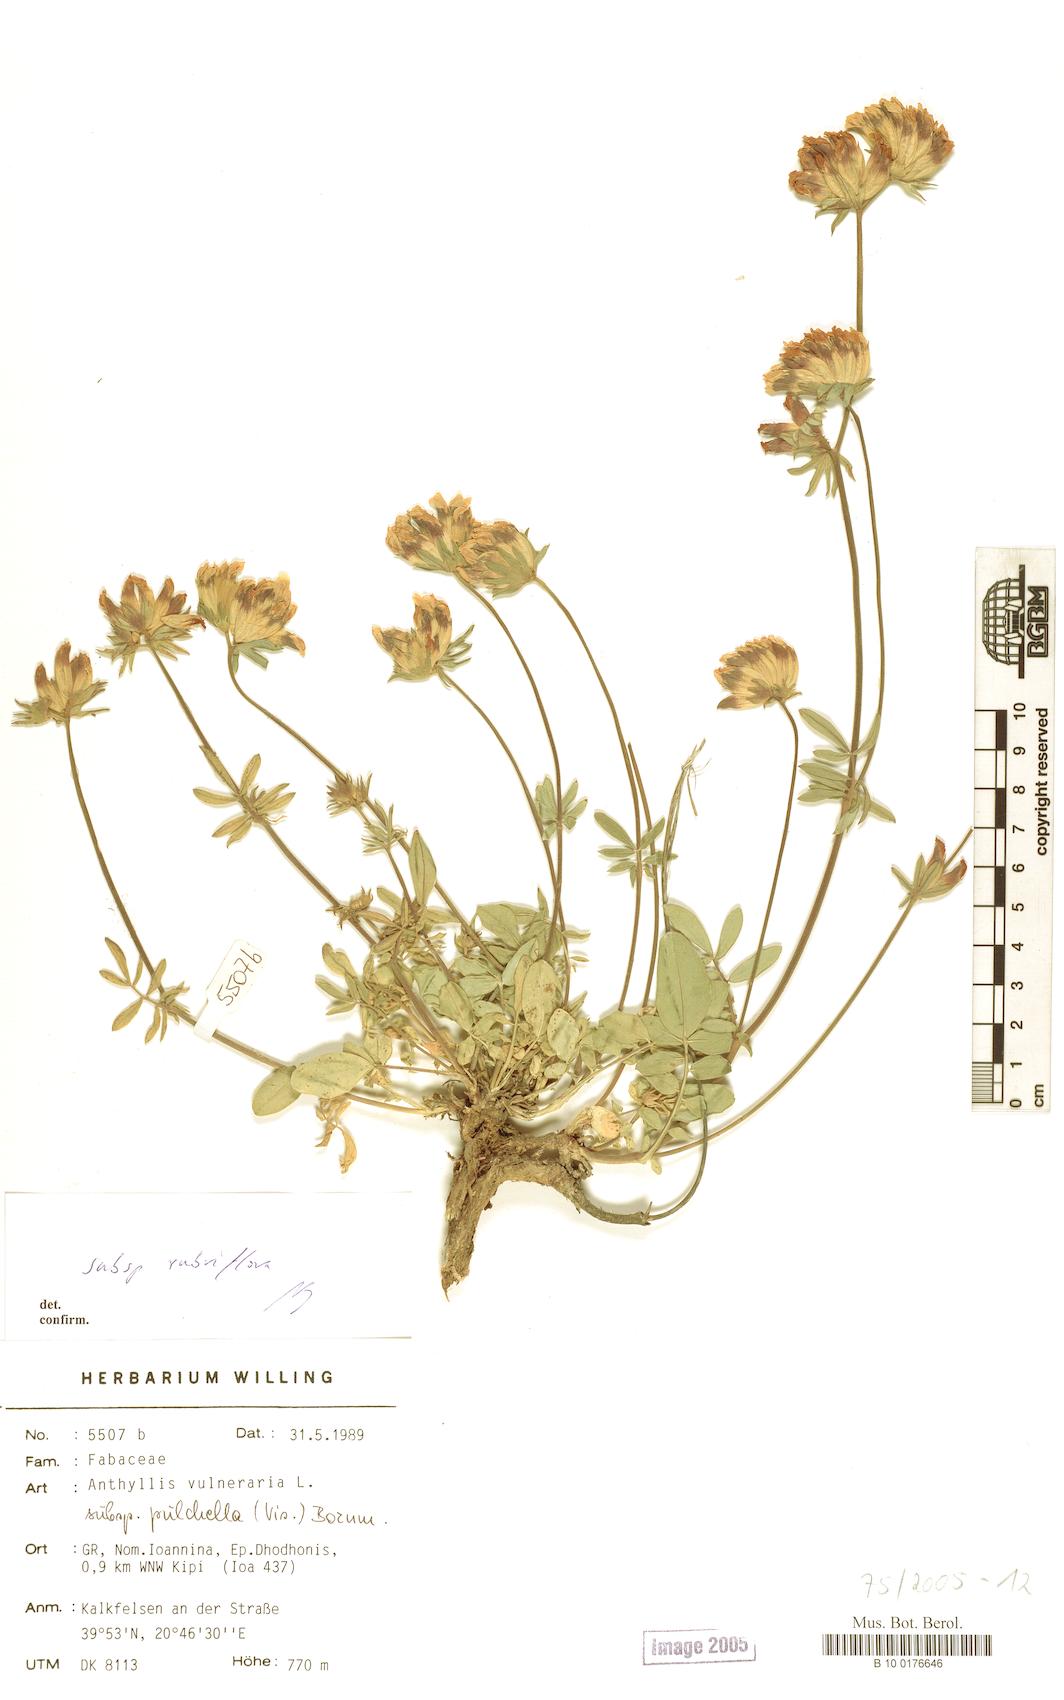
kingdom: Plantae
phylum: Tracheophyta
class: Magnoliopsida
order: Fabales
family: Fabaceae
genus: Anthyllis
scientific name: Anthyllis vulneraria
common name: Kidney vetch
